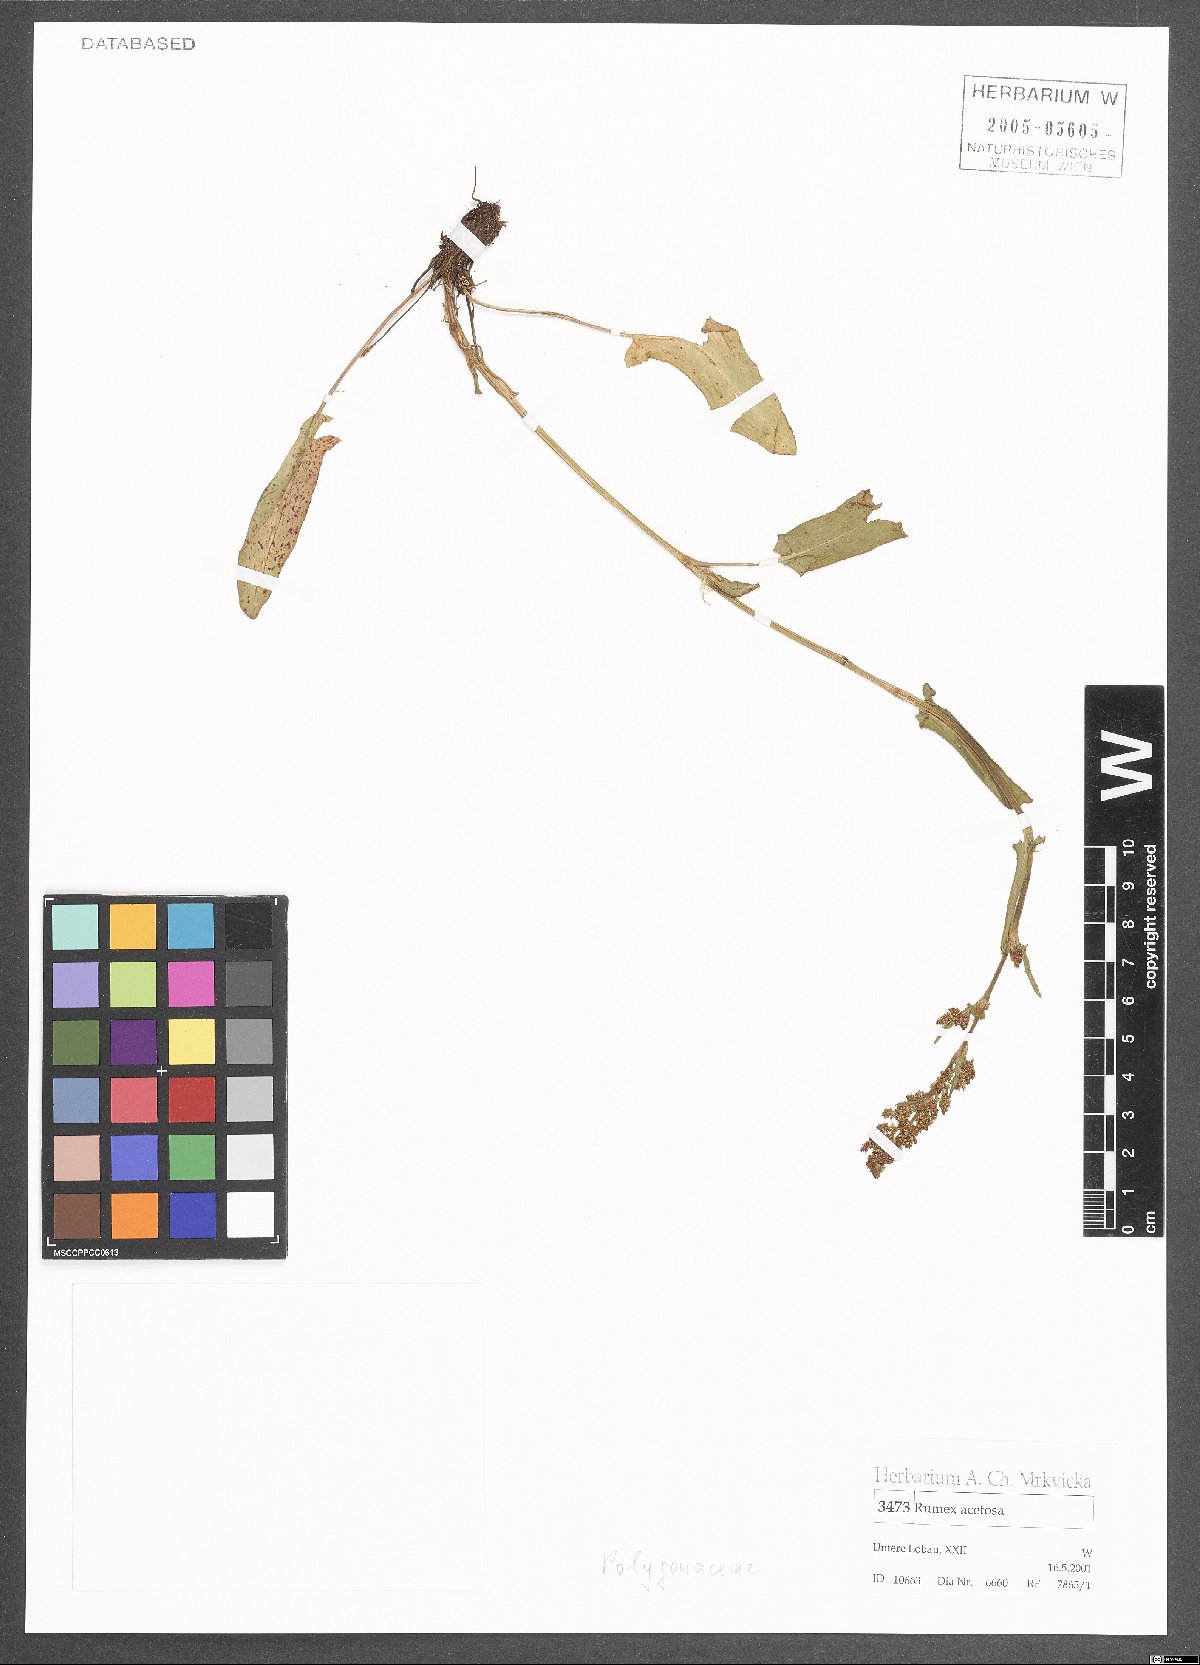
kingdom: Plantae
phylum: Tracheophyta
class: Magnoliopsida
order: Caryophyllales
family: Polygonaceae
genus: Rumex
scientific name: Rumex acetosa
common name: Garden sorrel
